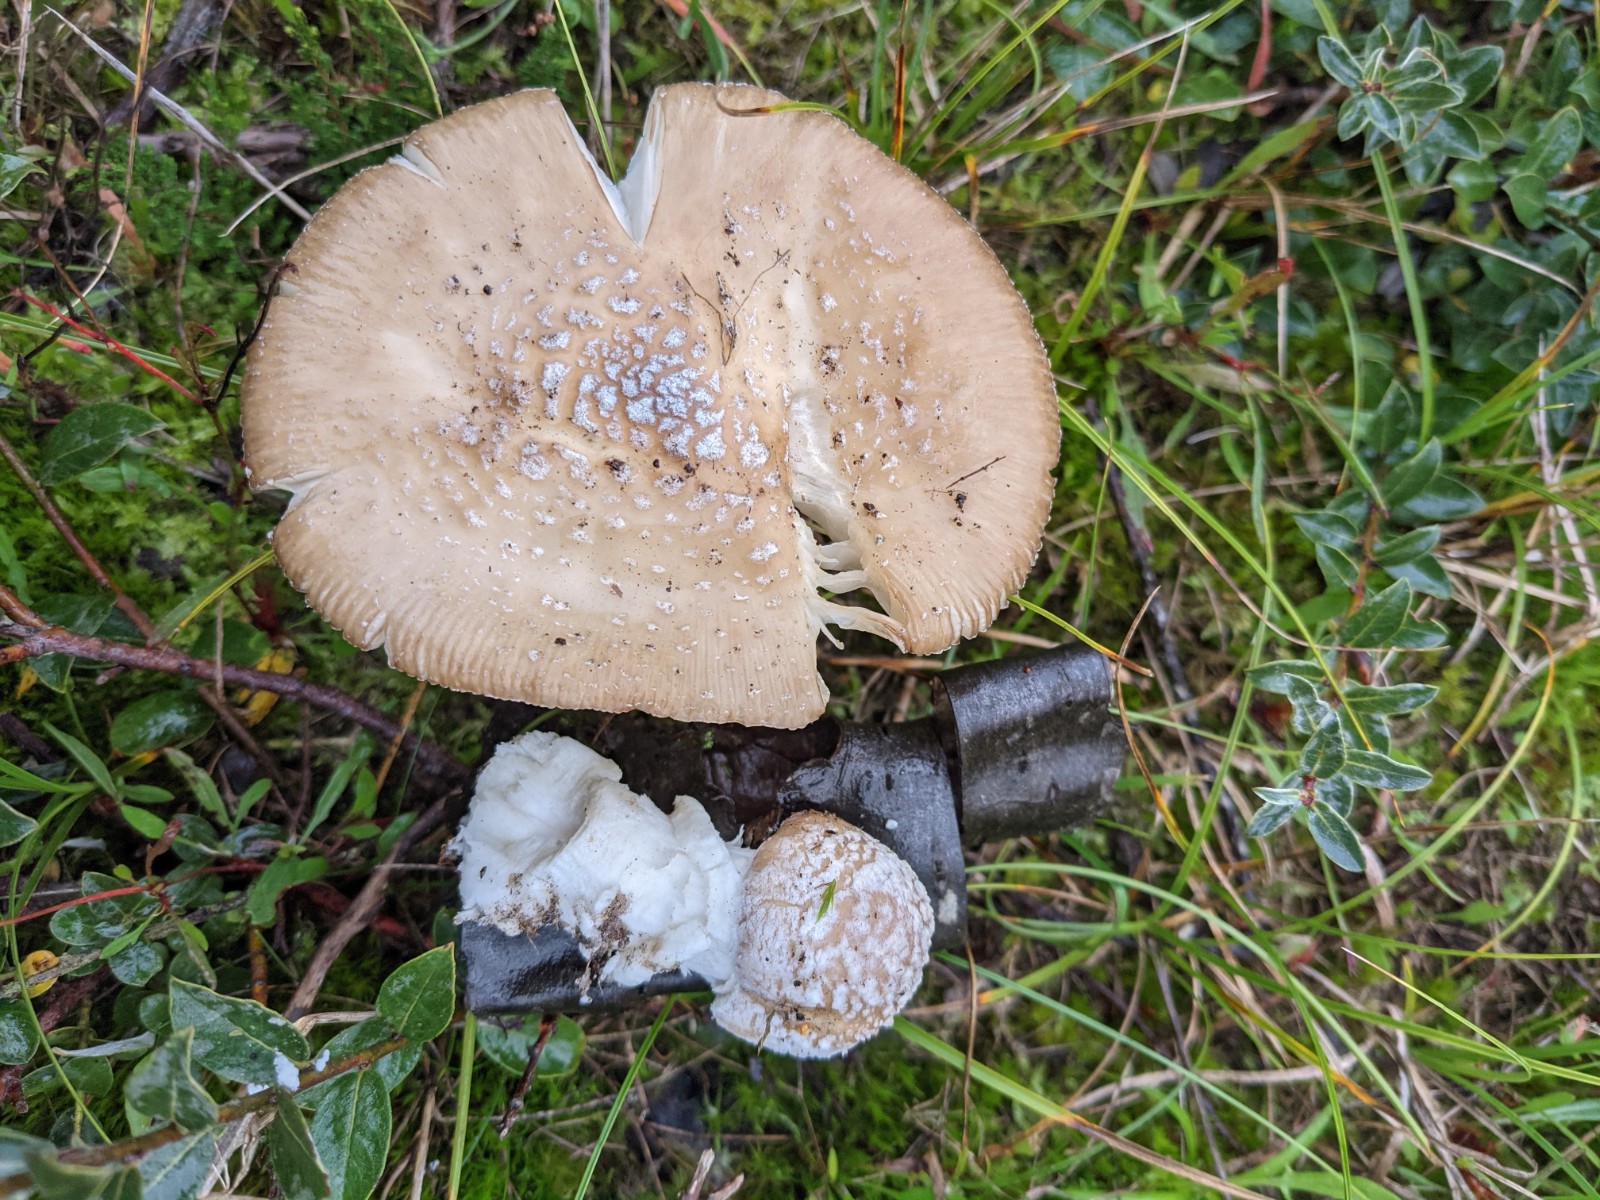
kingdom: Fungi
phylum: Basidiomycota
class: Agaricomycetes
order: Agaricales
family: Amanitaceae
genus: Amanita
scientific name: Amanita gemmata
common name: okkergul fluesvamp
